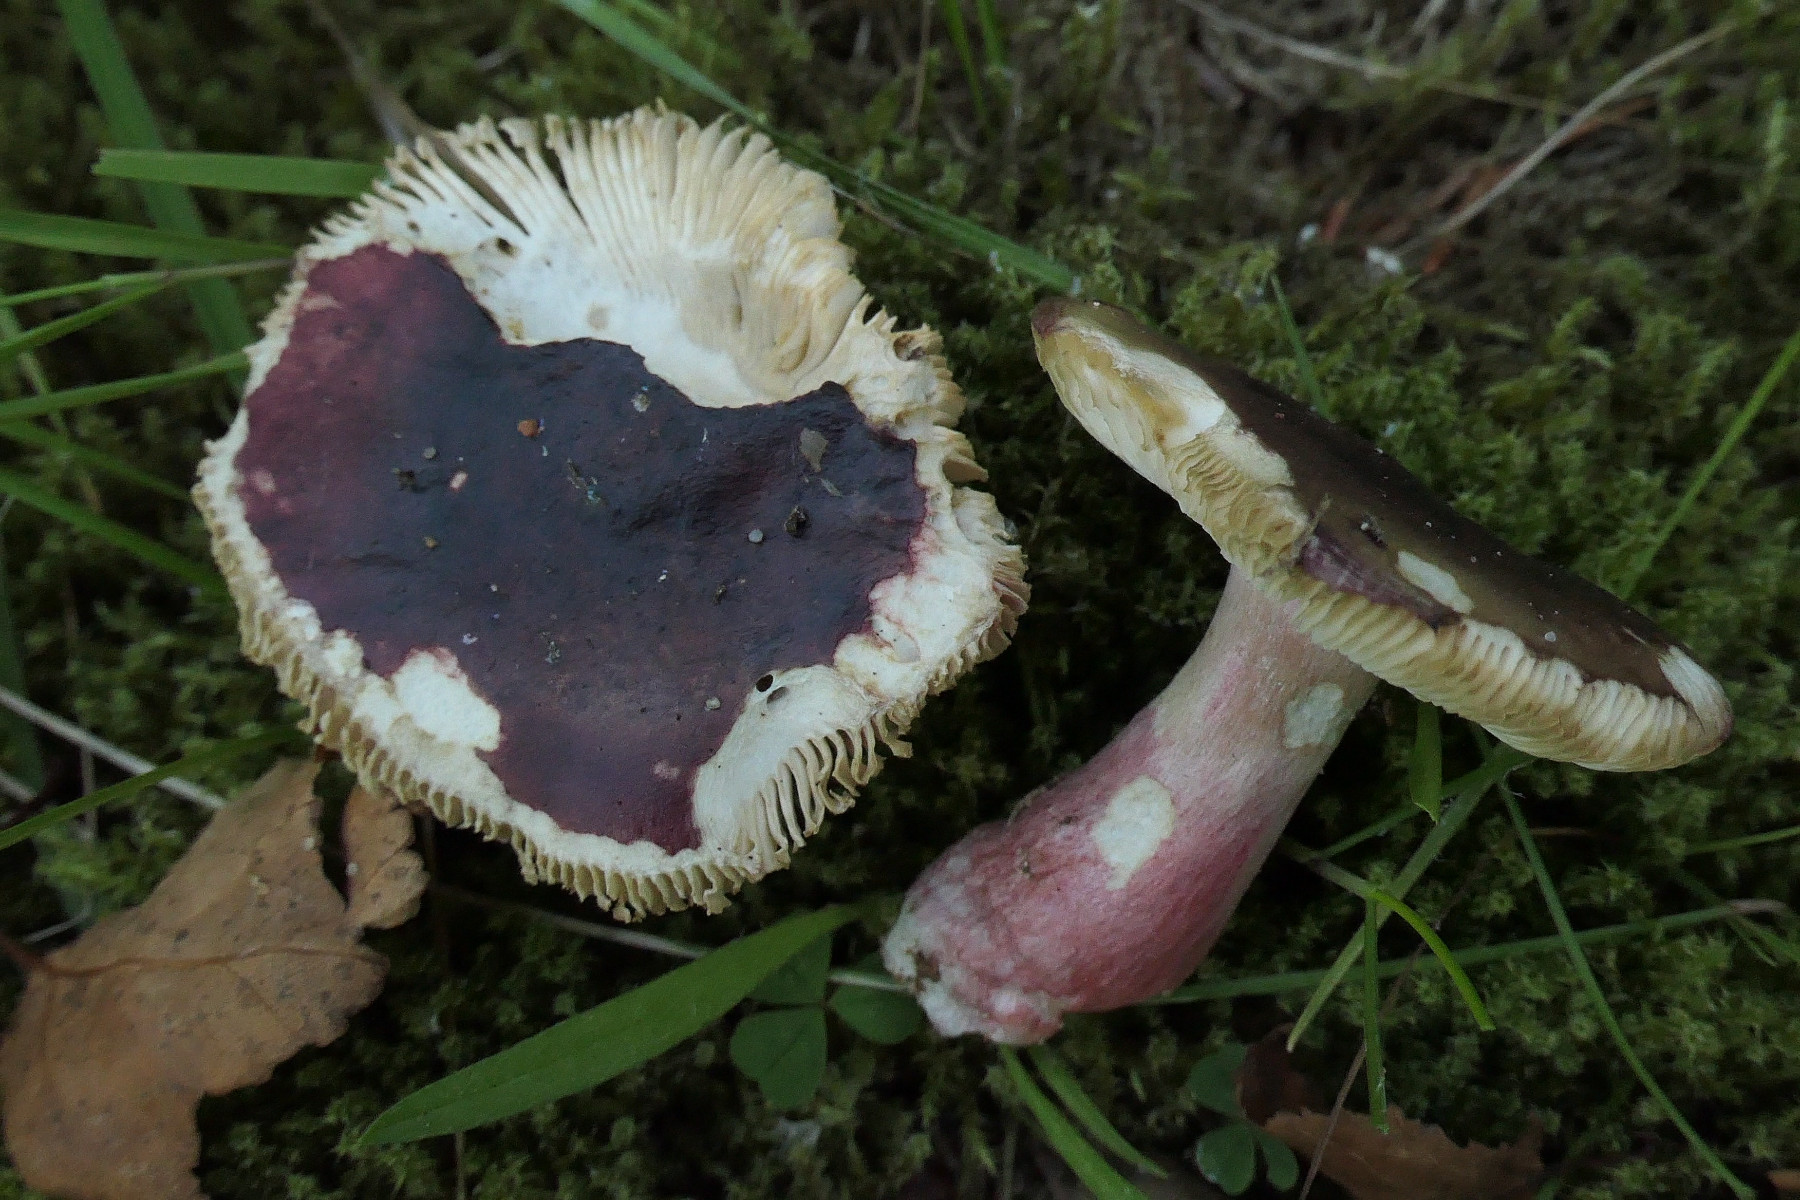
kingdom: Fungi
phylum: Basidiomycota
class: Agaricomycetes
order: Russulales
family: Russulaceae
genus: Russula
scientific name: Russula queletii
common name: Quélets skørhat
